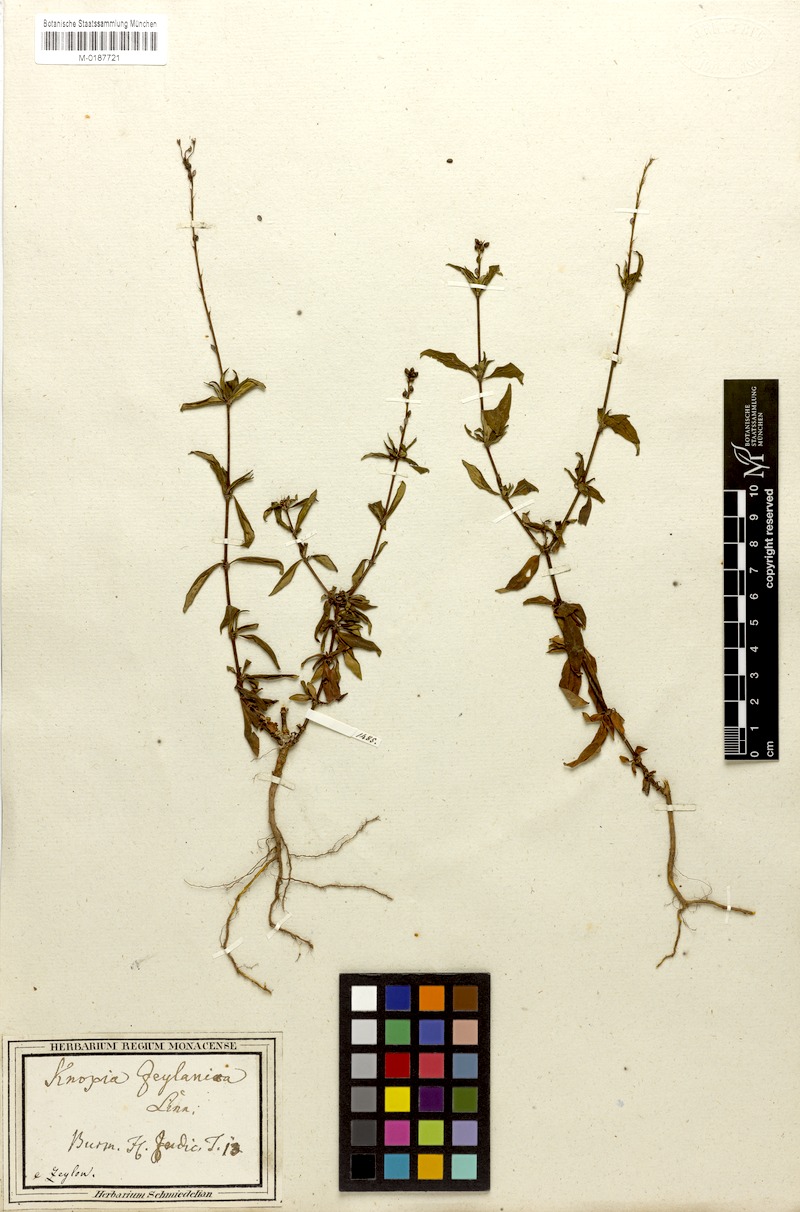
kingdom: Plantae
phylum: Tracheophyta
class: Magnoliopsida
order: Gentianales
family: Rubiaceae
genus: Knoxia
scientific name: Knoxia zeylanica
